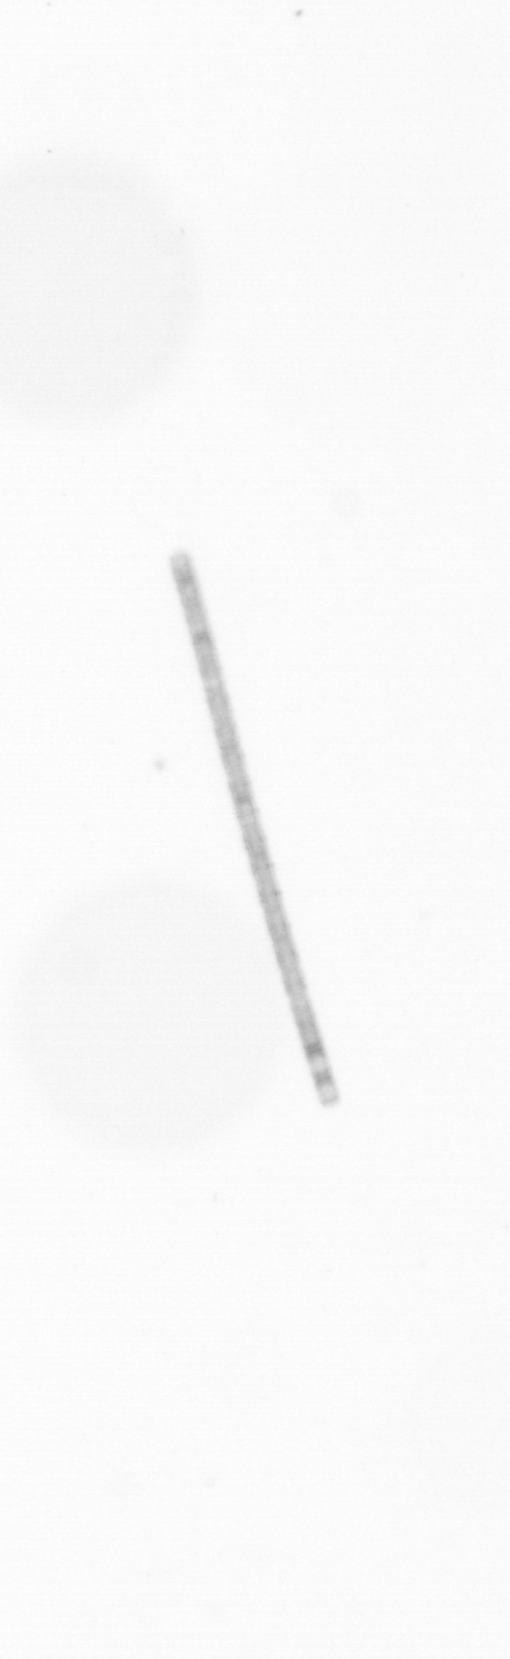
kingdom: Chromista
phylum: Ochrophyta
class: Bacillariophyceae
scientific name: Bacillariophyceae
